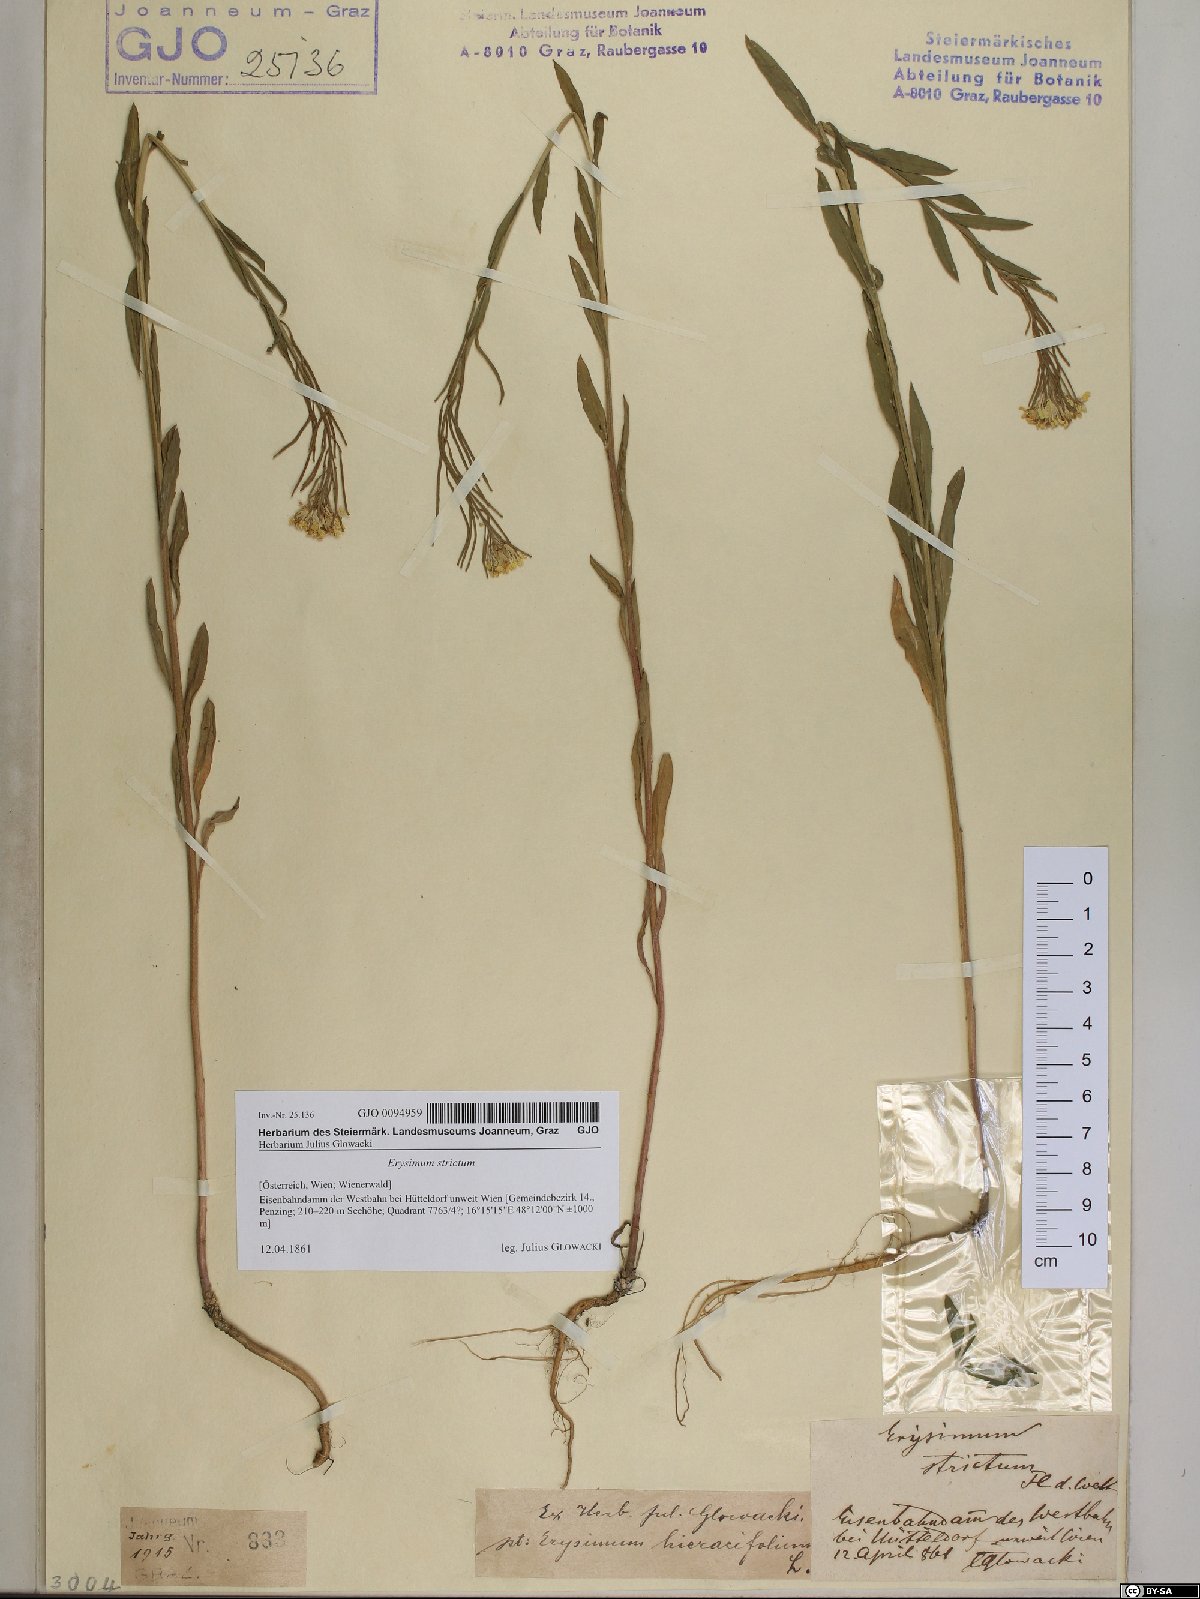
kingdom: Plantae
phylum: Tracheophyta
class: Magnoliopsida
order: Brassicales
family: Brassicaceae
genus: Erysimum
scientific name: Erysimum strictum
